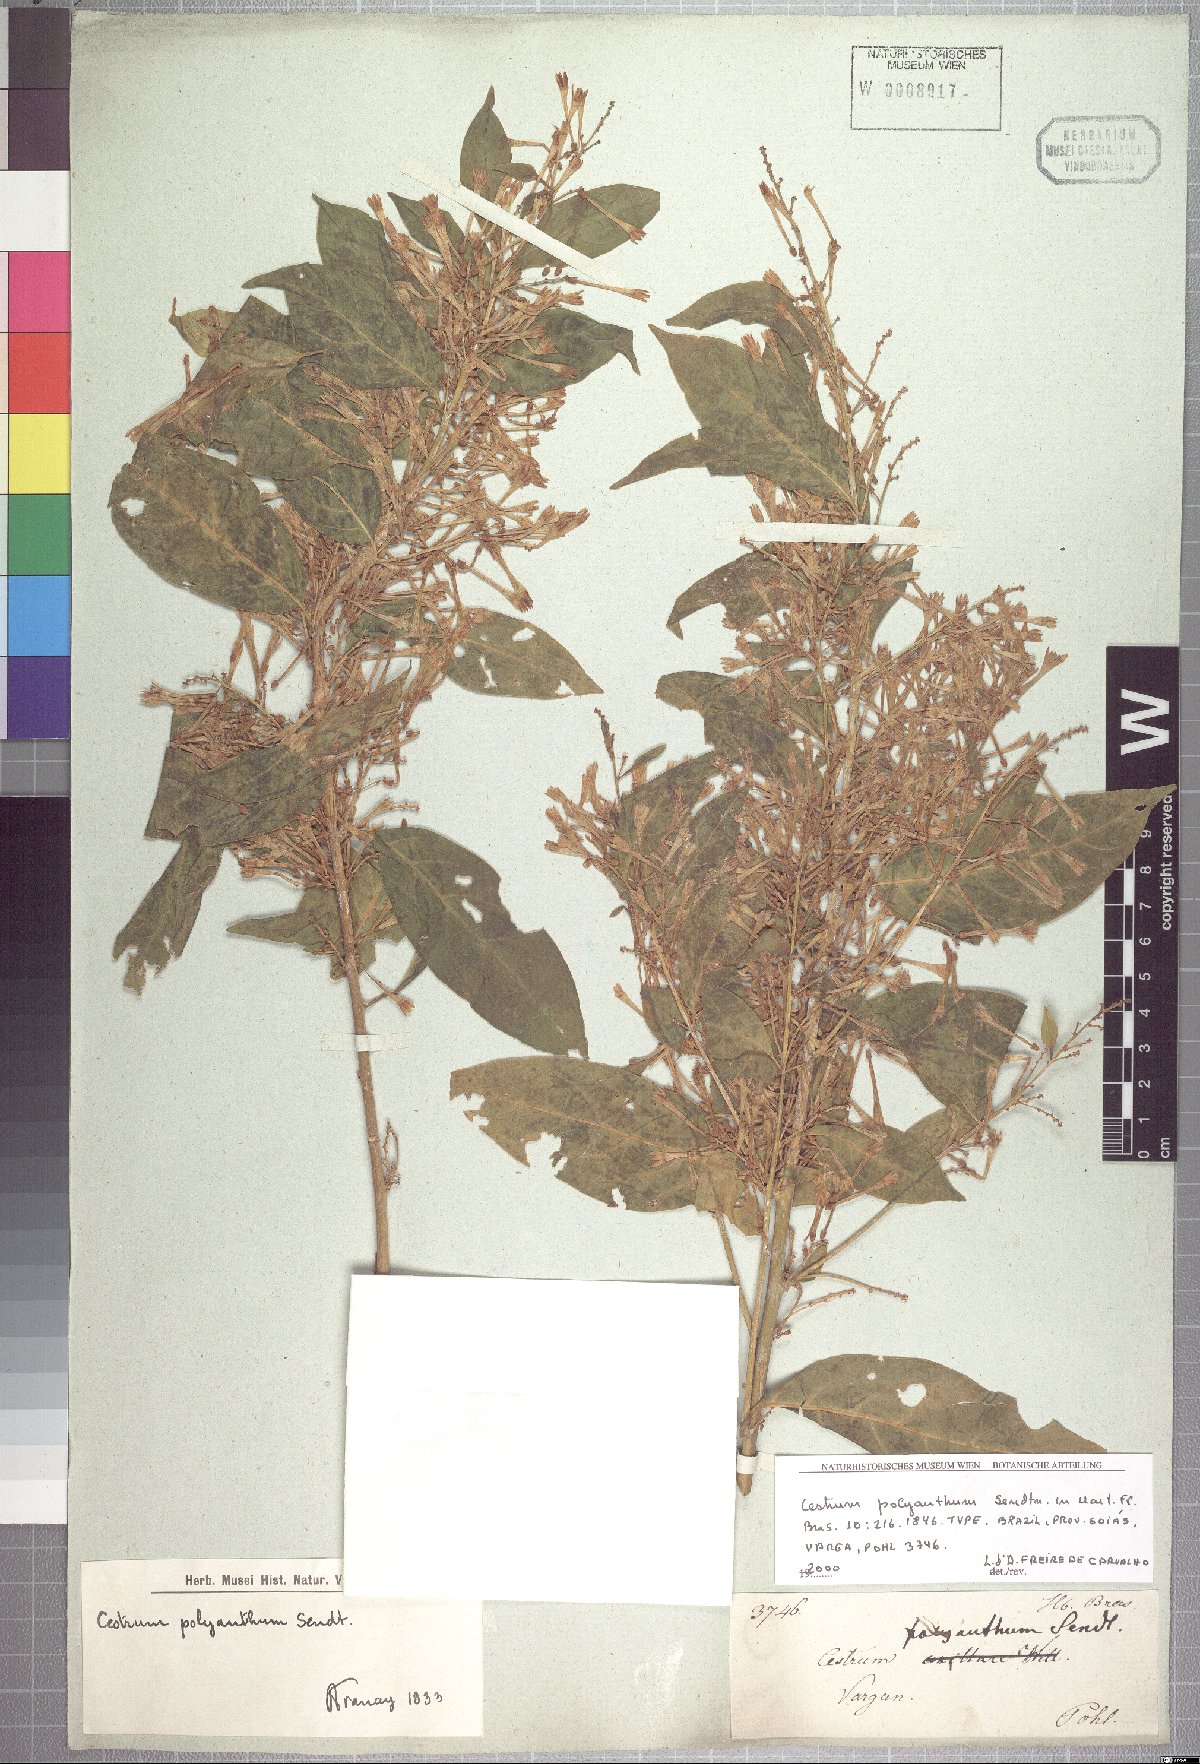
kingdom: Plantae
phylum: Tracheophyta
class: Magnoliopsida
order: Solanales
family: Solanaceae
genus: Cestrum
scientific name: Cestrum polyanthum
